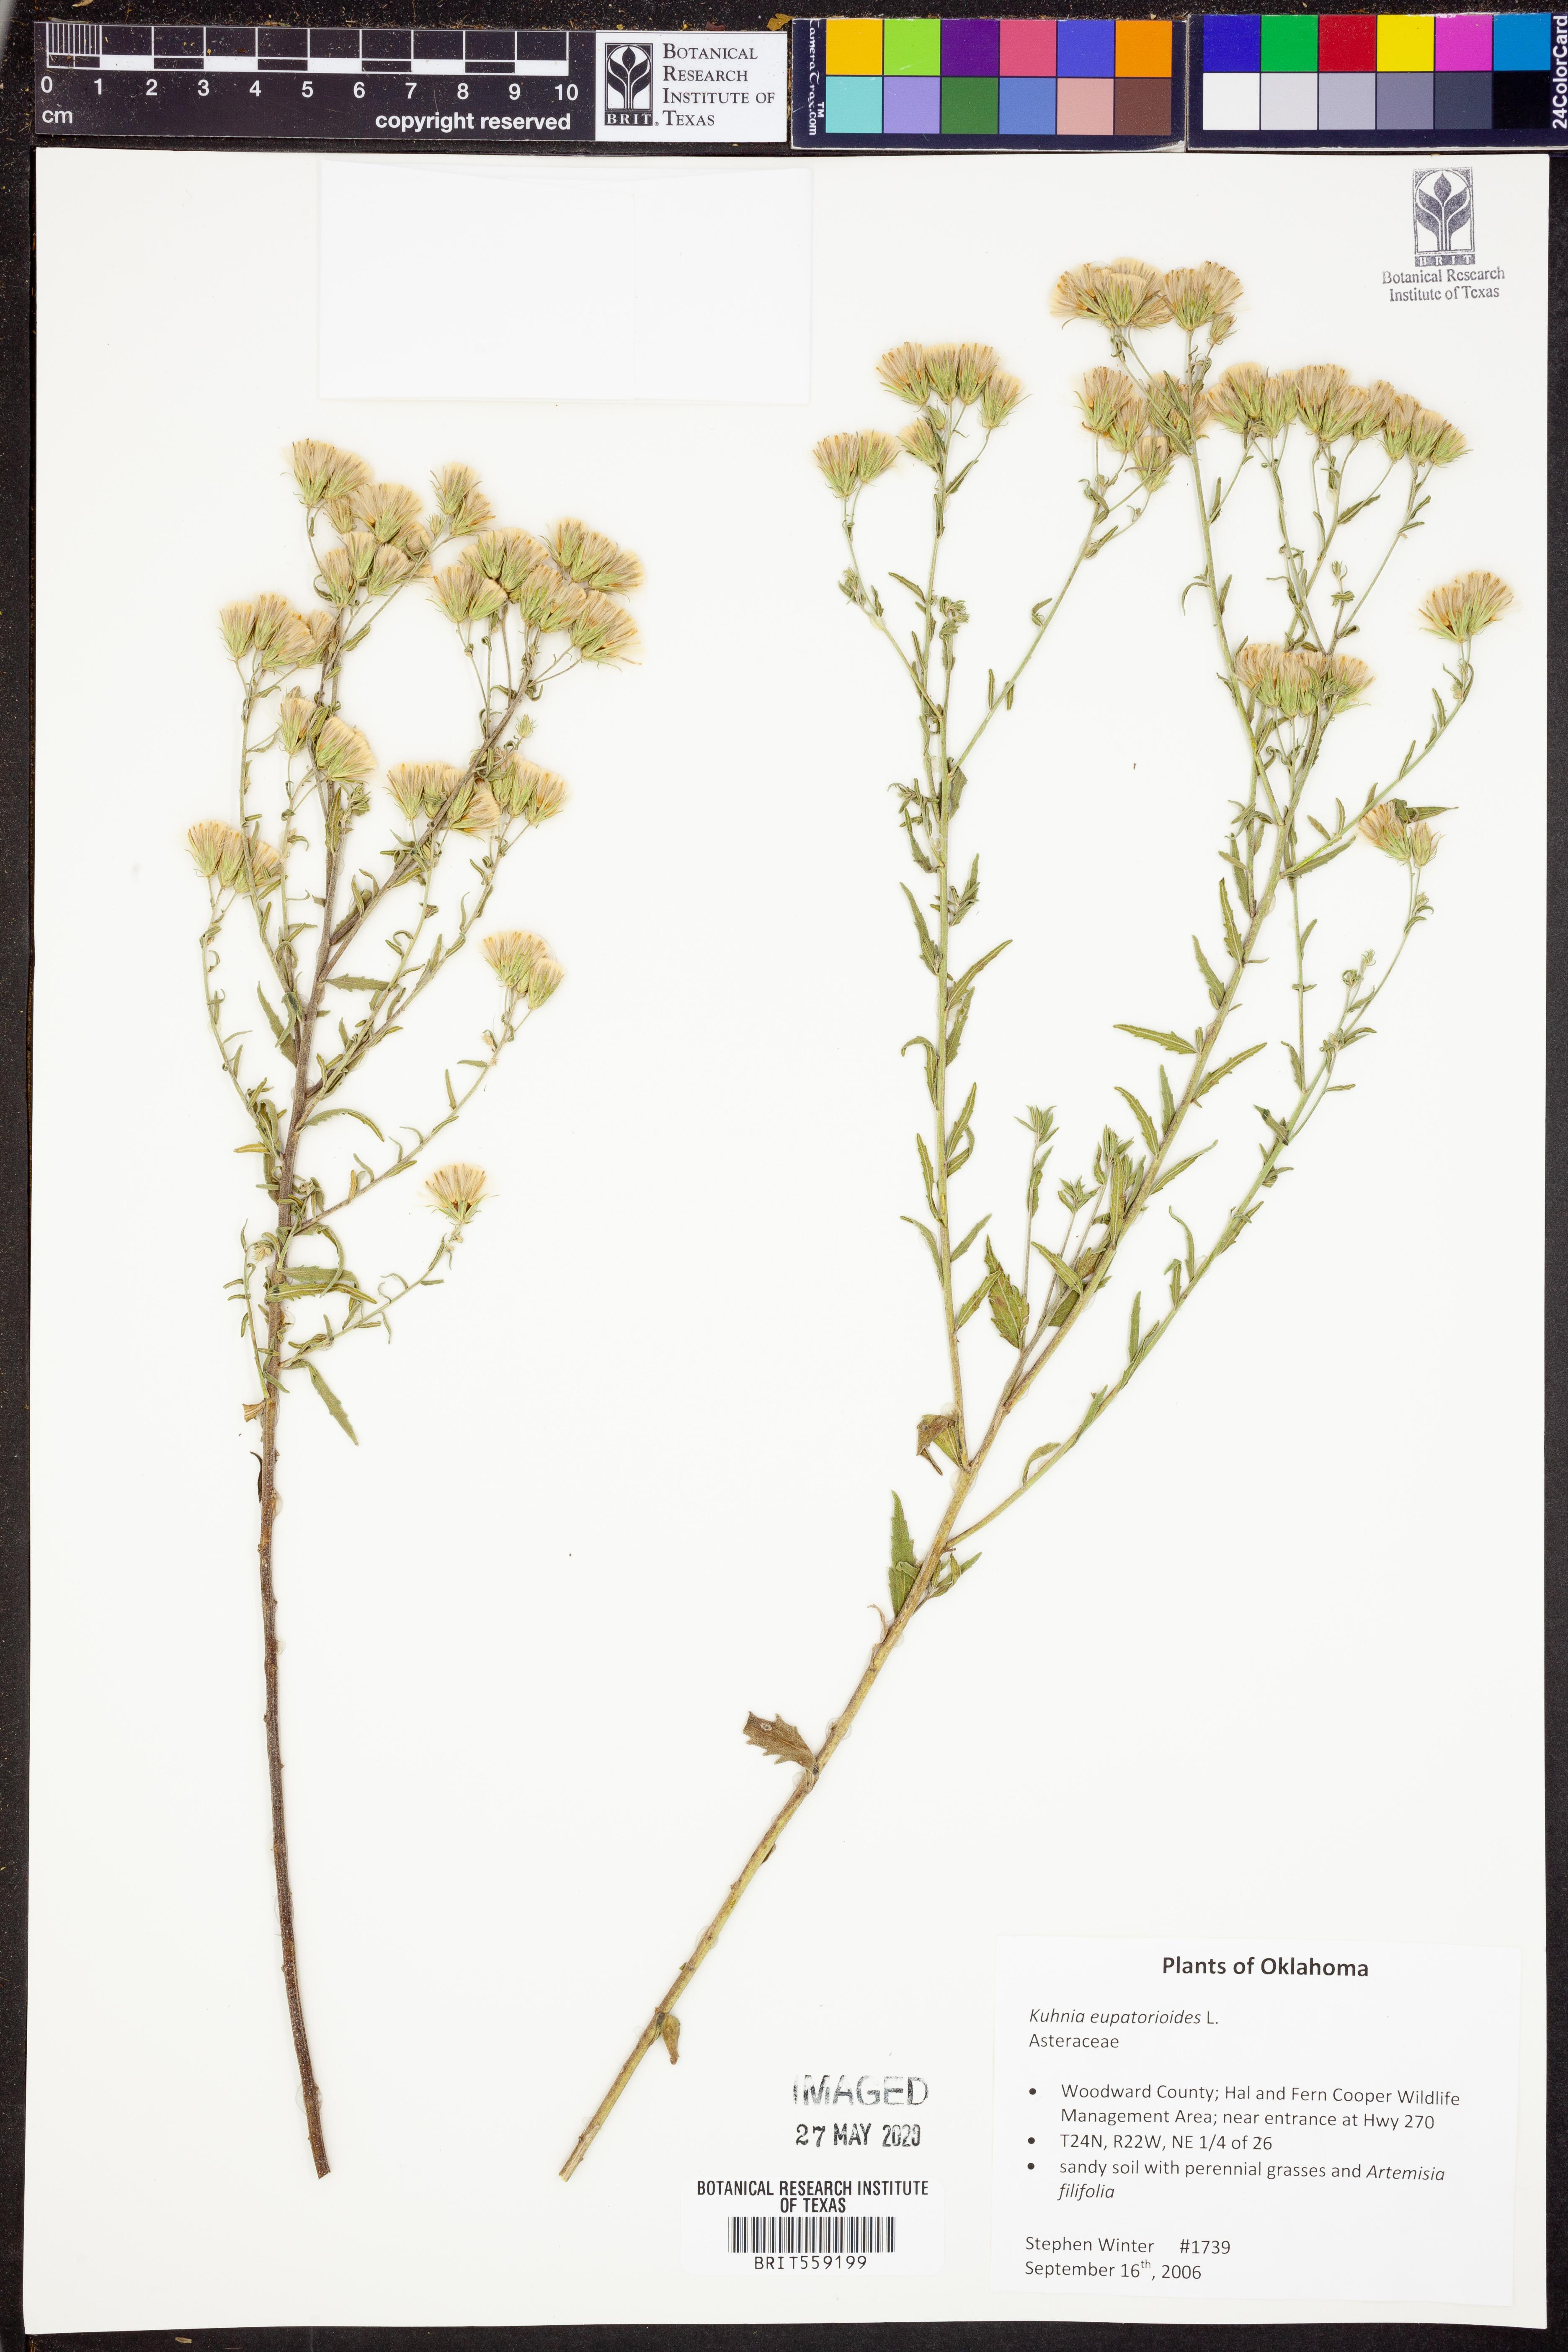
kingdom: Plantae
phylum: Tracheophyta
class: Magnoliopsida
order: Asterales
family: Asteraceae
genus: Brickellia
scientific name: Brickellia eupatorioides
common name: False boneset
